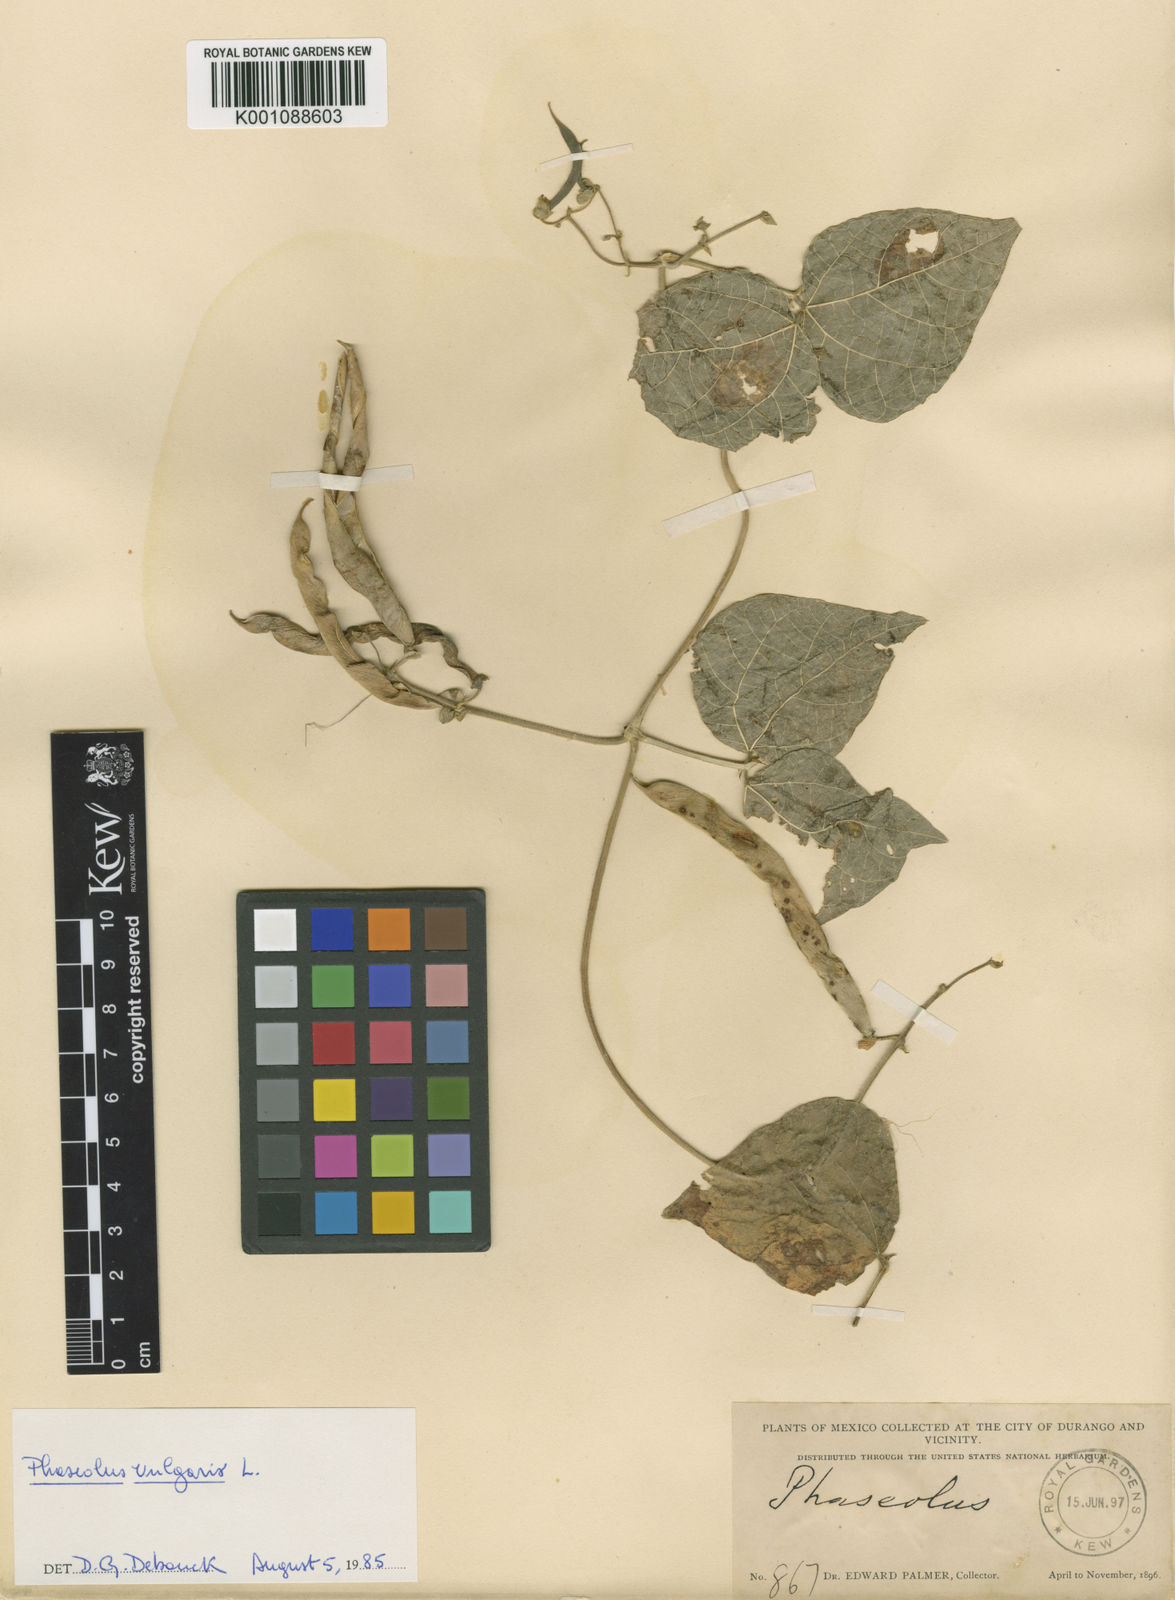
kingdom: Plantae
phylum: Tracheophyta
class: Magnoliopsida
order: Fabales
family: Fabaceae
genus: Phaseolus
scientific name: Phaseolus vulgaris
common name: Bean
